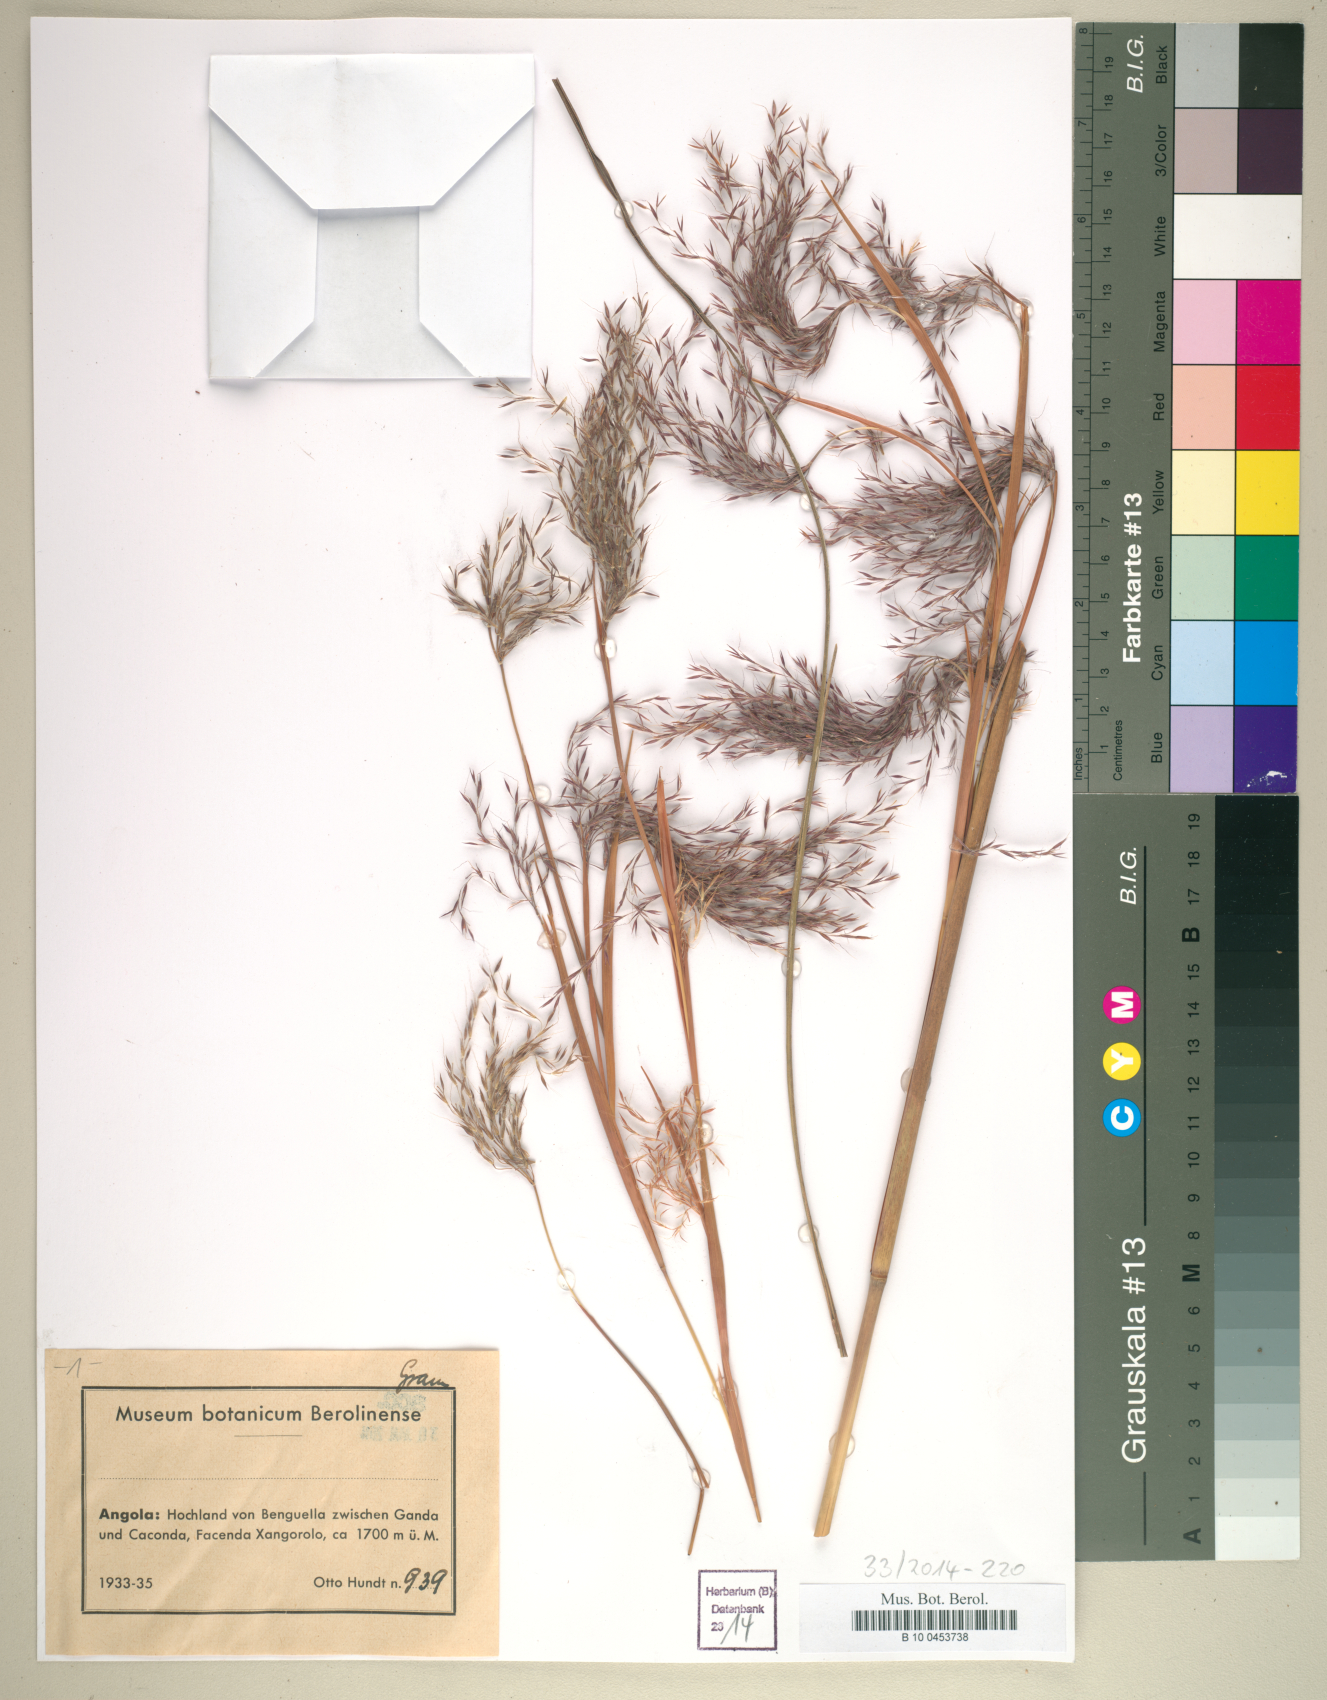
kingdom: Plantae
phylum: Tracheophyta
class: Liliopsida
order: Poales
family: Poaceae
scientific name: Poaceae
